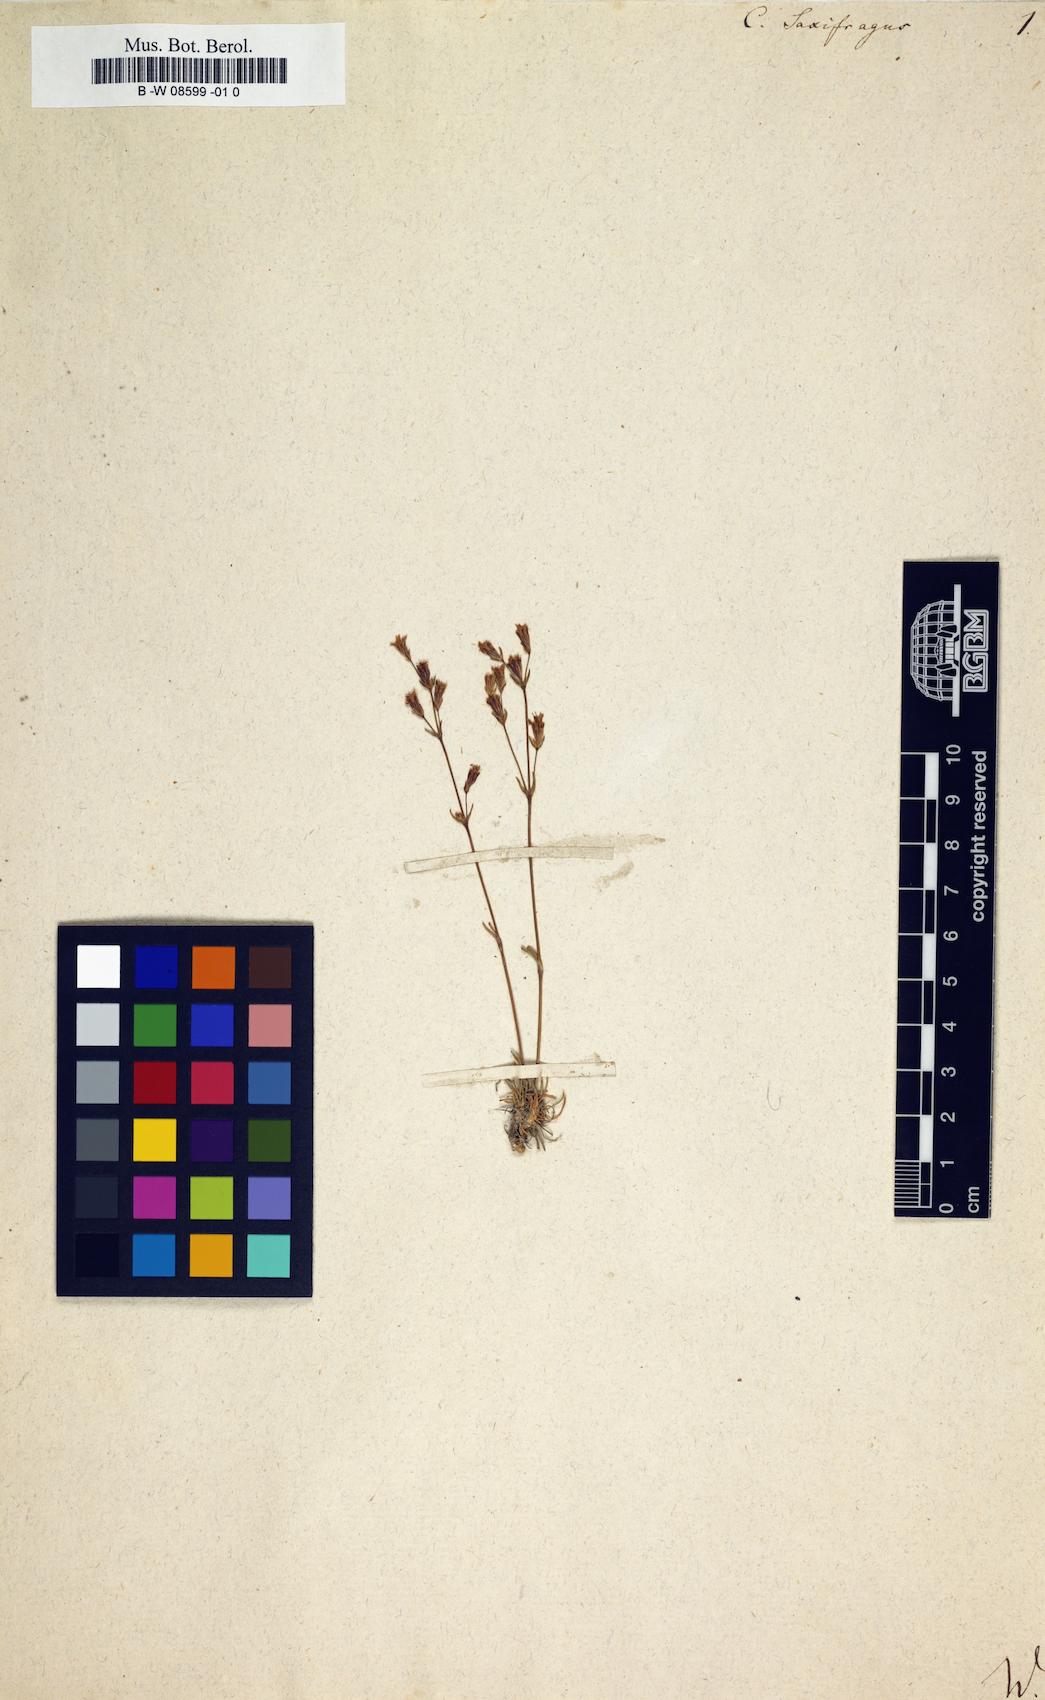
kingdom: Plantae
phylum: Tracheophyta
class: Magnoliopsida
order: Caryophyllales
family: Caryophyllaceae
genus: Silene
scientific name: Silene
